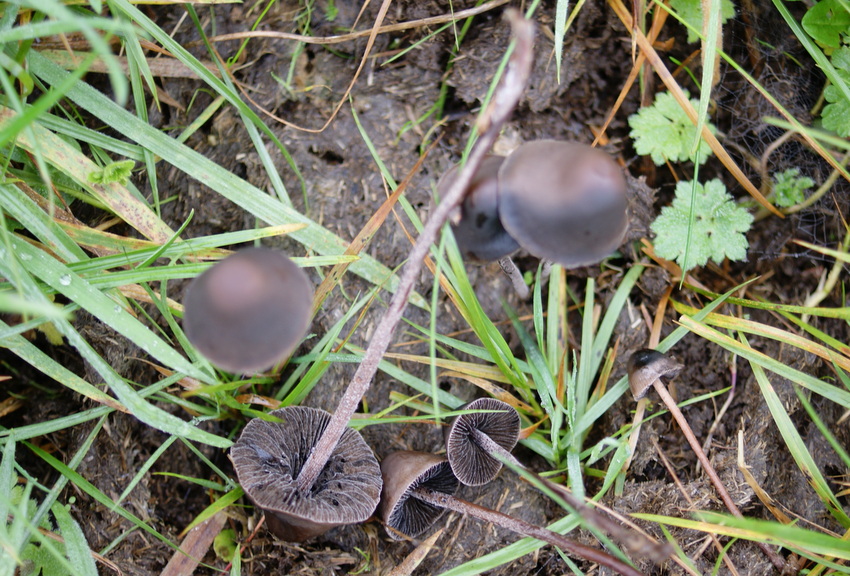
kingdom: Fungi
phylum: Basidiomycota
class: Agaricomycetes
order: Agaricales
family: Bolbitiaceae
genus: Panaeolus
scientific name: Panaeolus acuminatus
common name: høj glanshat
